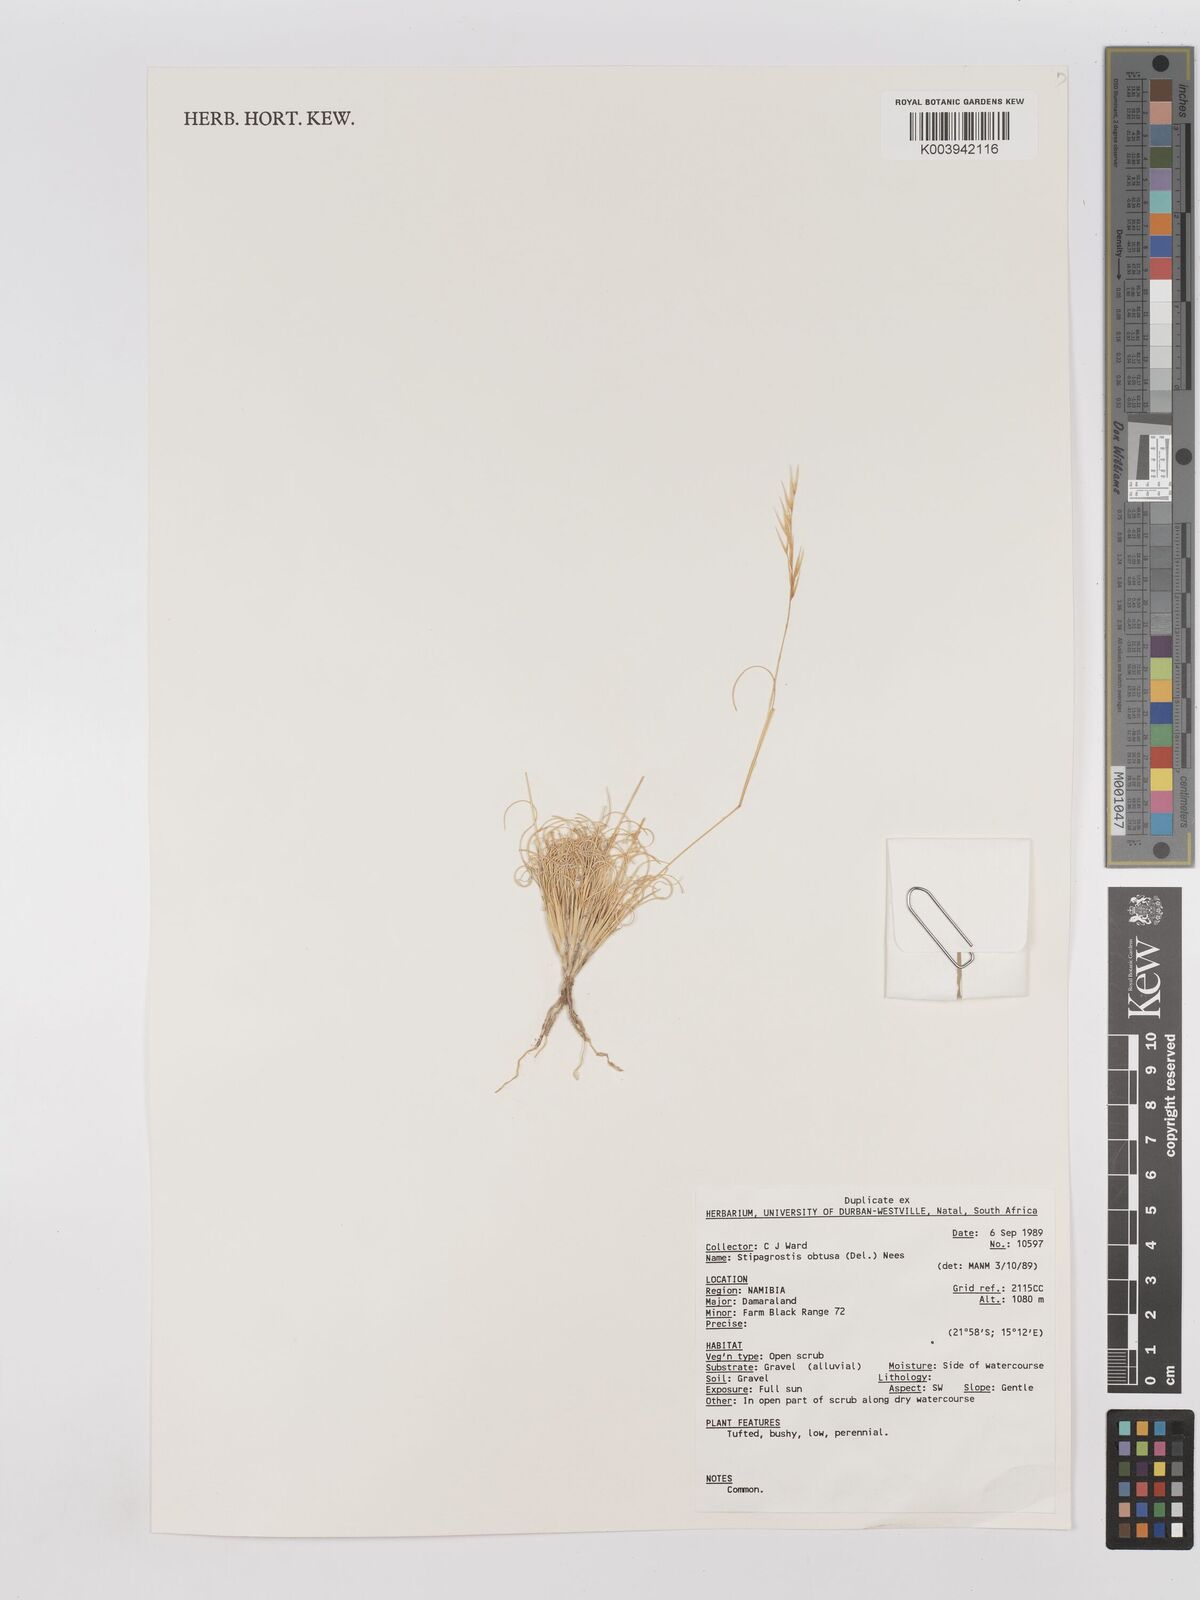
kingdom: Plantae
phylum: Tracheophyta
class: Liliopsida
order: Poales
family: Poaceae
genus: Stipagrostis
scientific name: Stipagrostis obtusa
